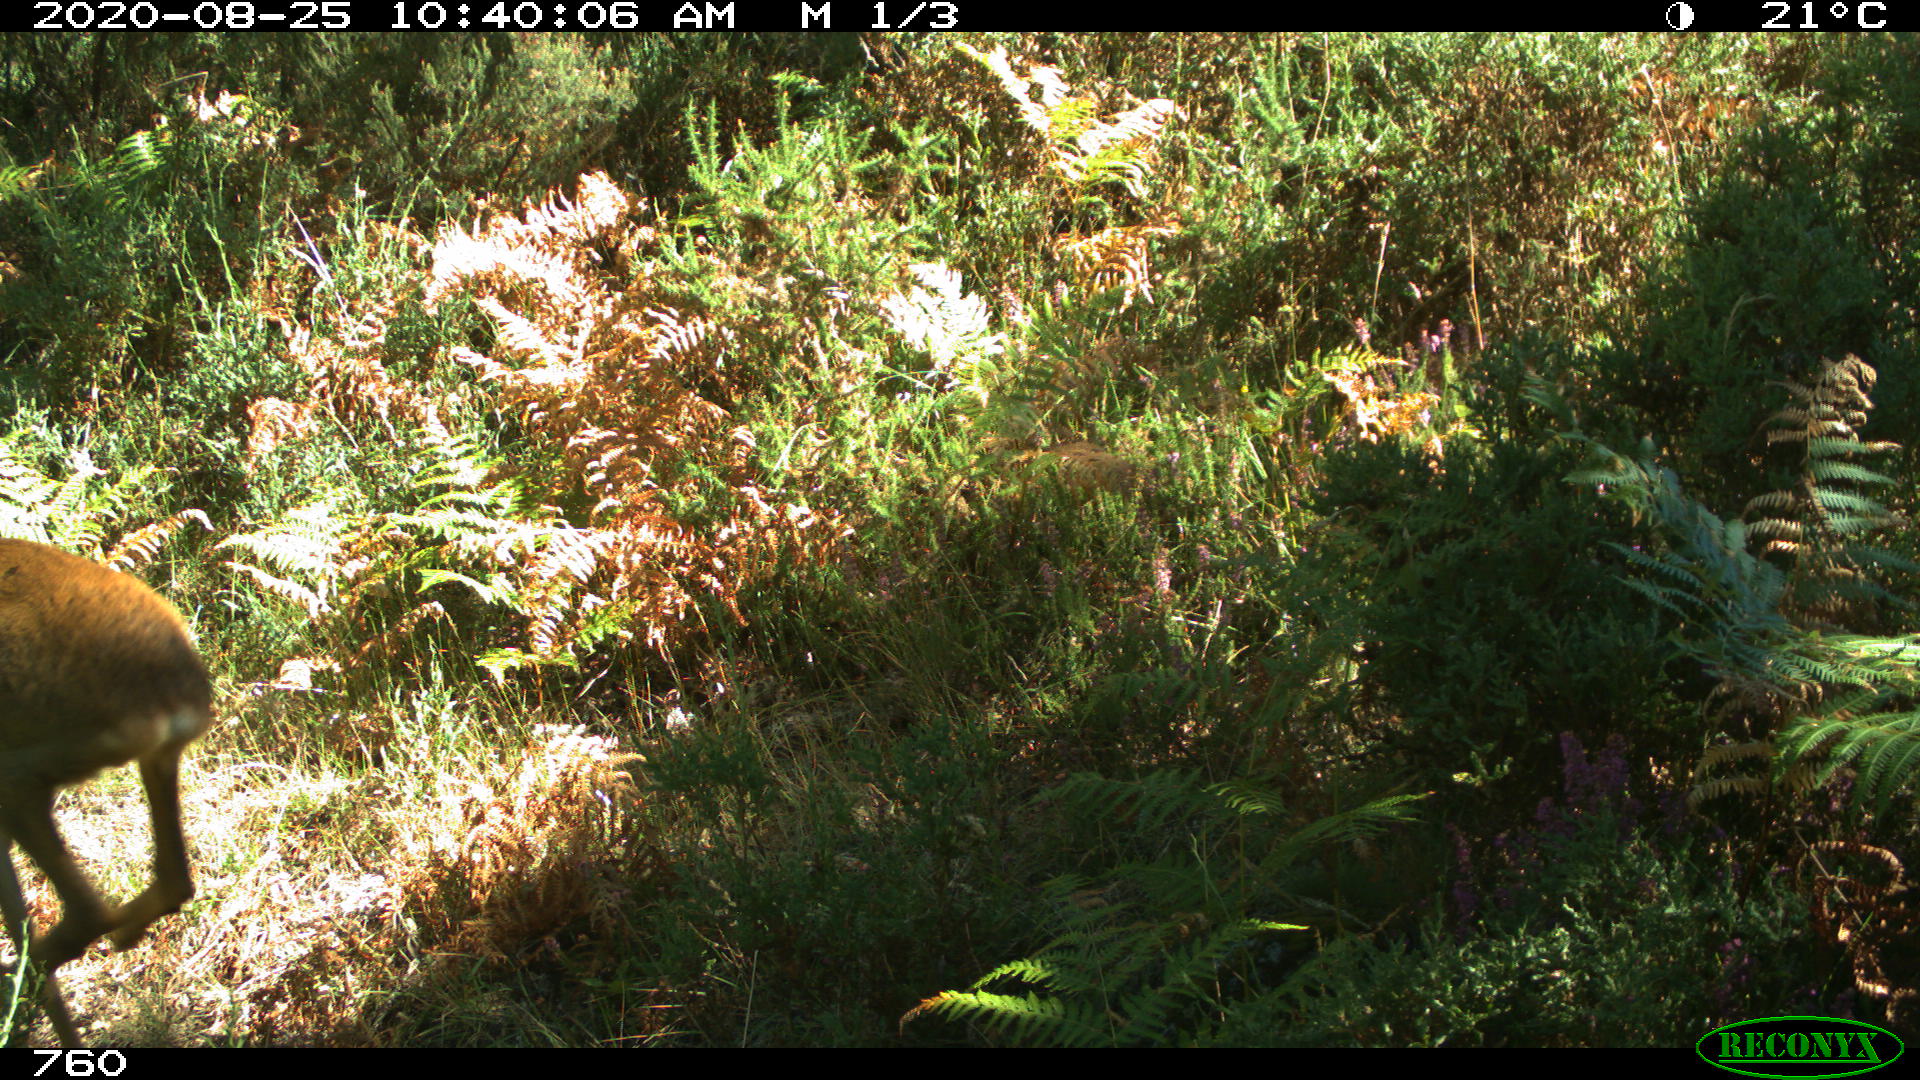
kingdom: Animalia
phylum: Chordata
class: Mammalia
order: Artiodactyla
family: Cervidae
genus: Capreolus
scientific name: Capreolus capreolus
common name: Western roe deer
